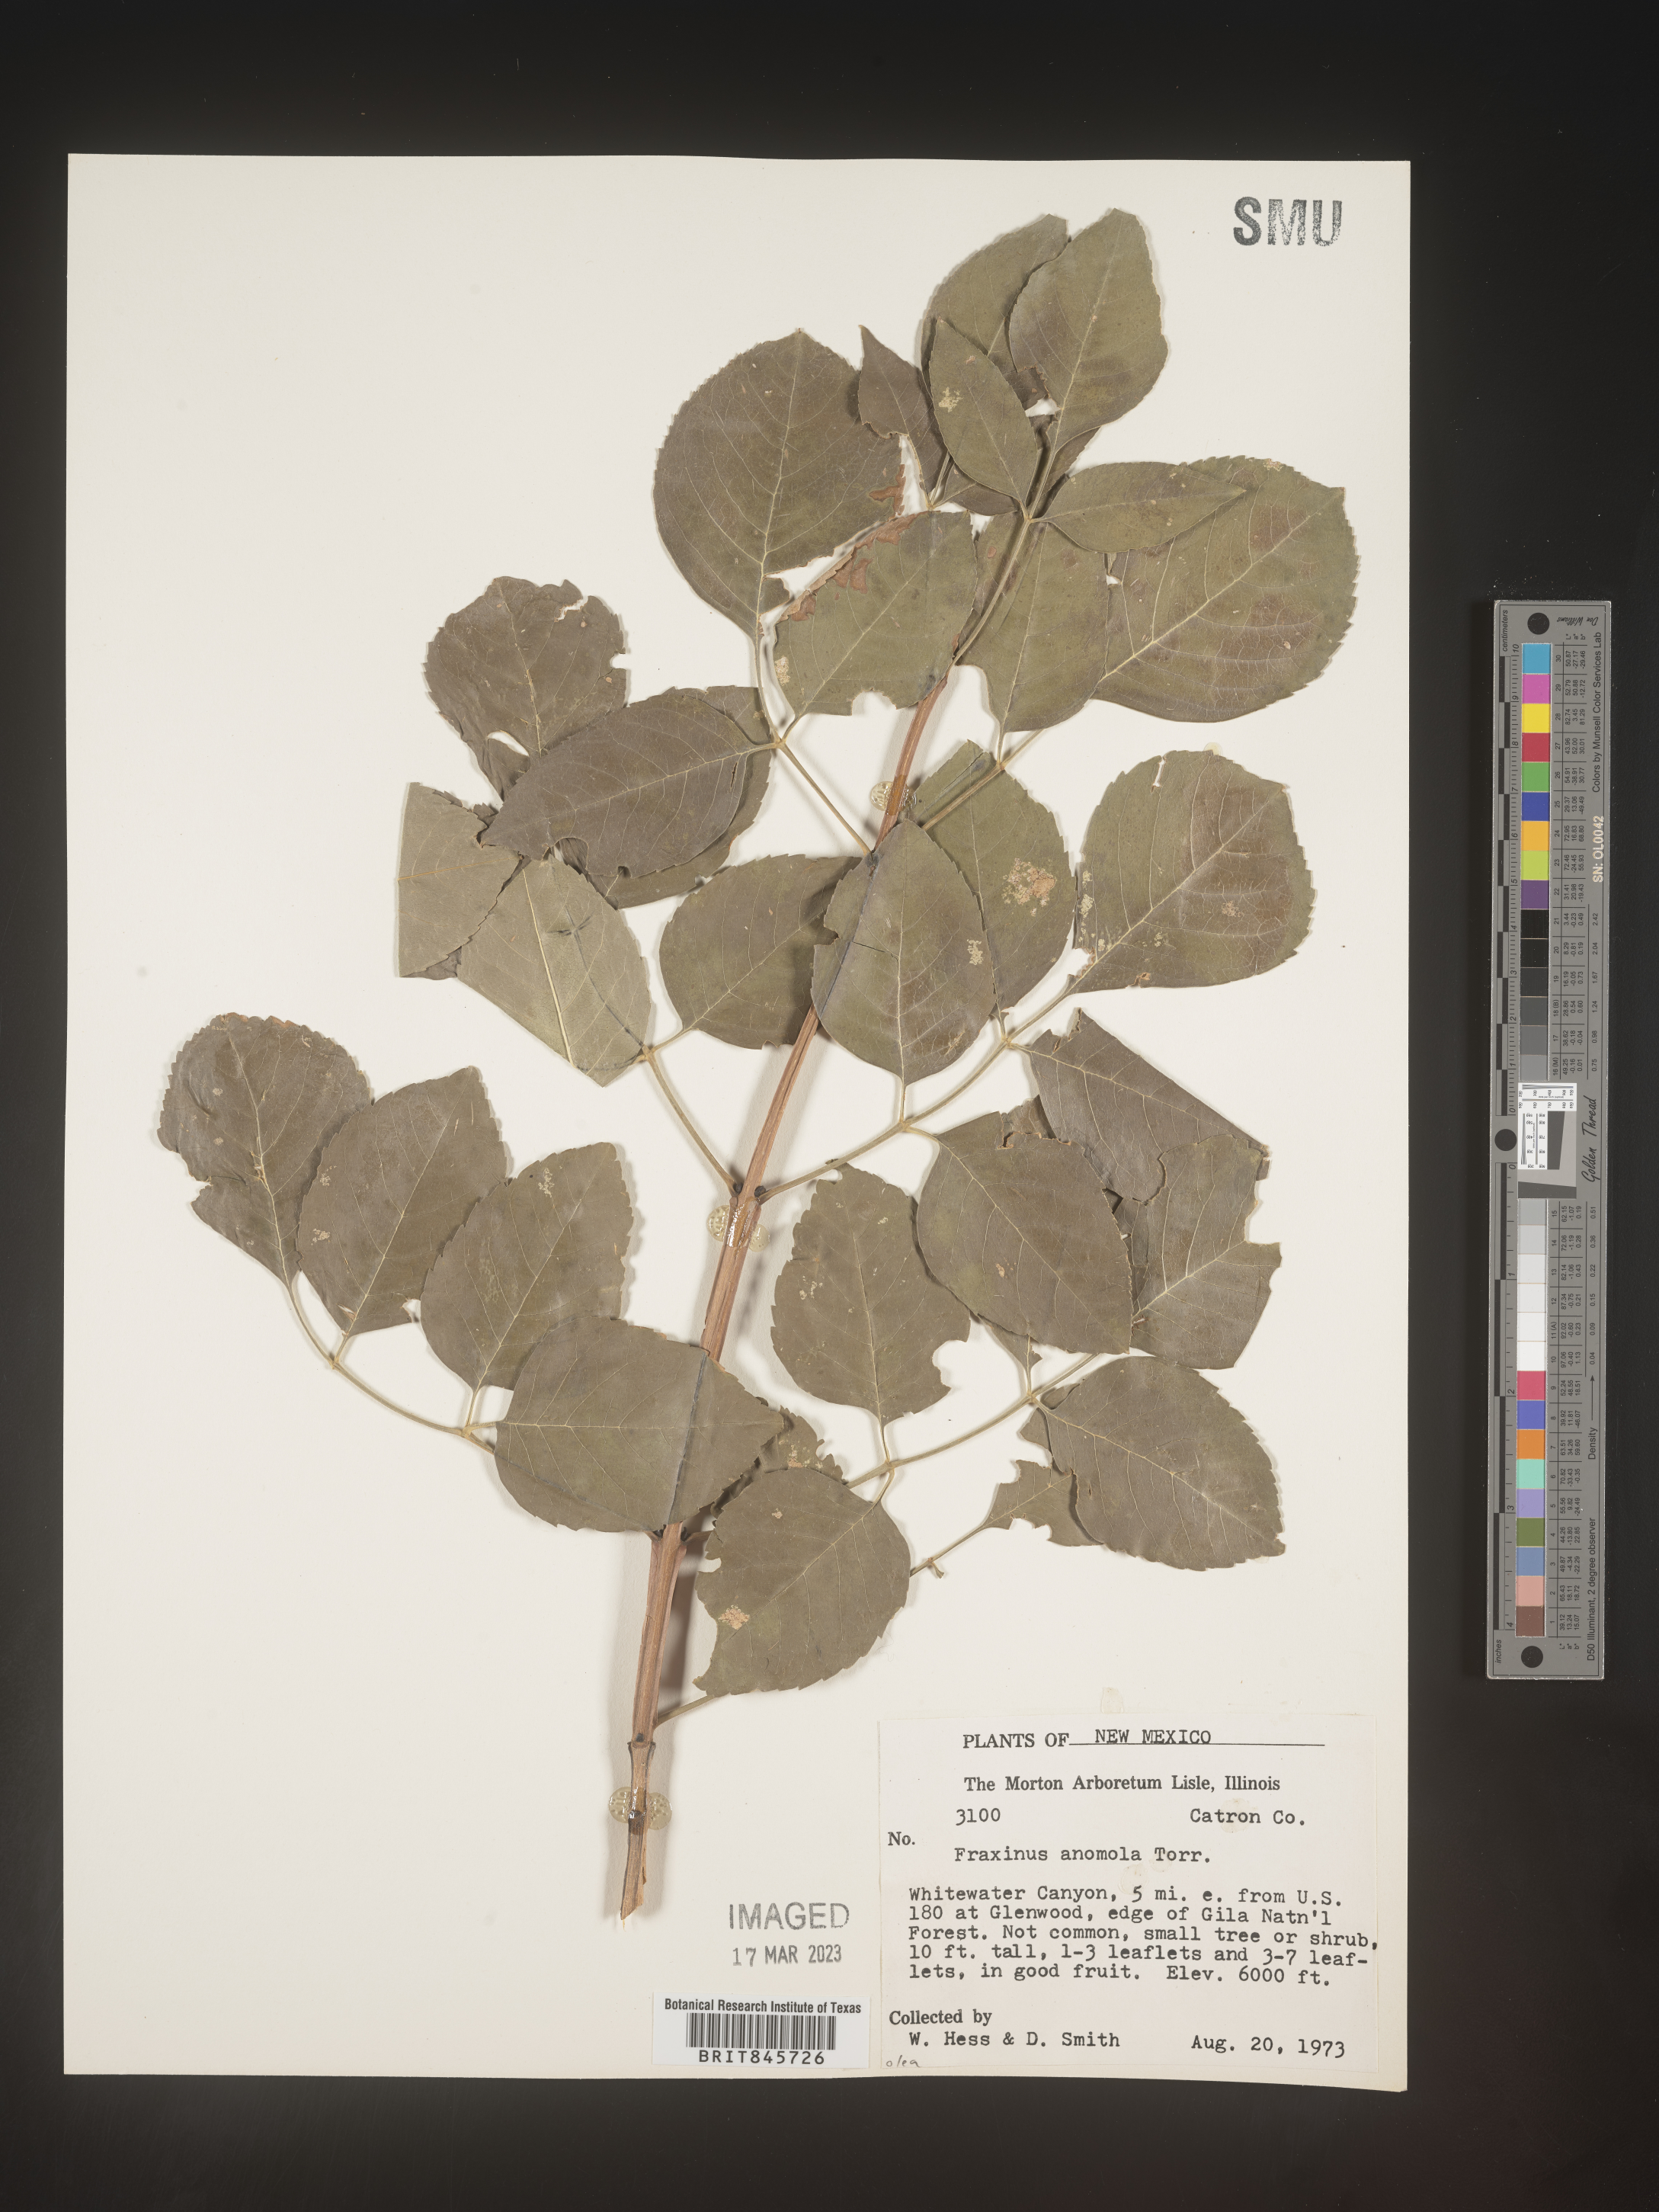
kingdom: Plantae
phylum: Tracheophyta
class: Magnoliopsida
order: Lamiales
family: Oleaceae
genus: Fraxinus
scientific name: Fraxinus anomala
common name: Utah ash
